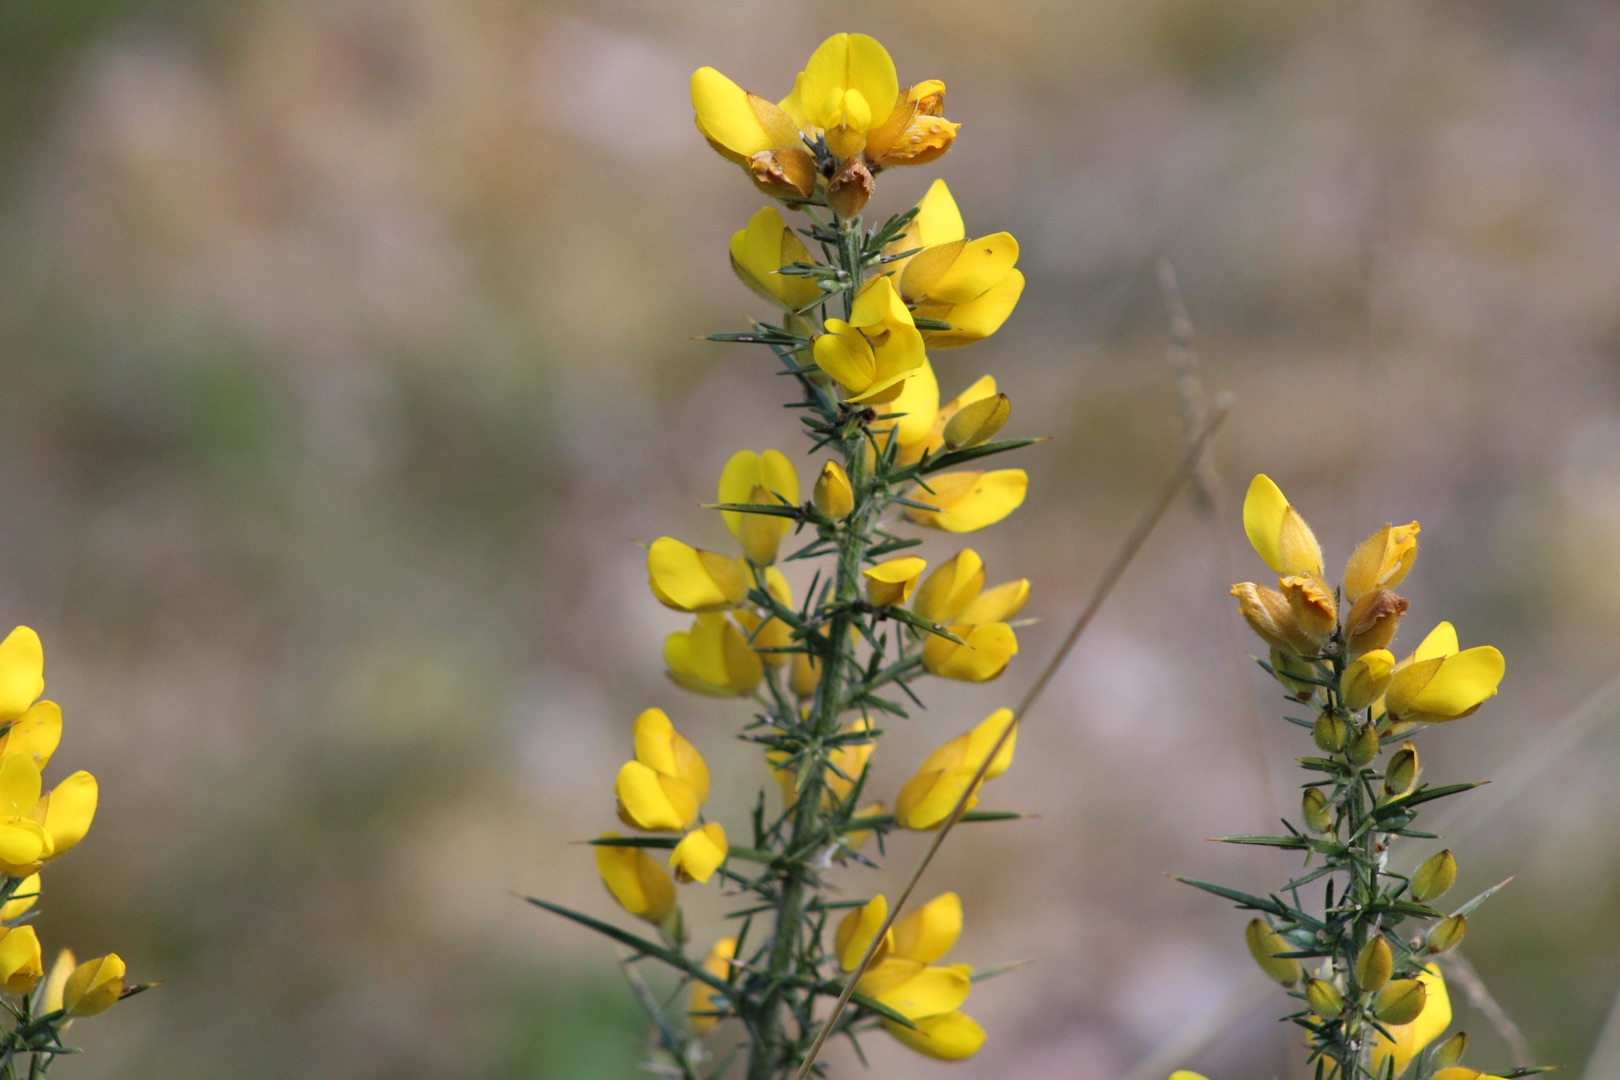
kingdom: Plantae
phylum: Tracheophyta
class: Magnoliopsida
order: Fabales
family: Fabaceae
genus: Ulex
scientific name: Ulex europaeus
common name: Tornblad
